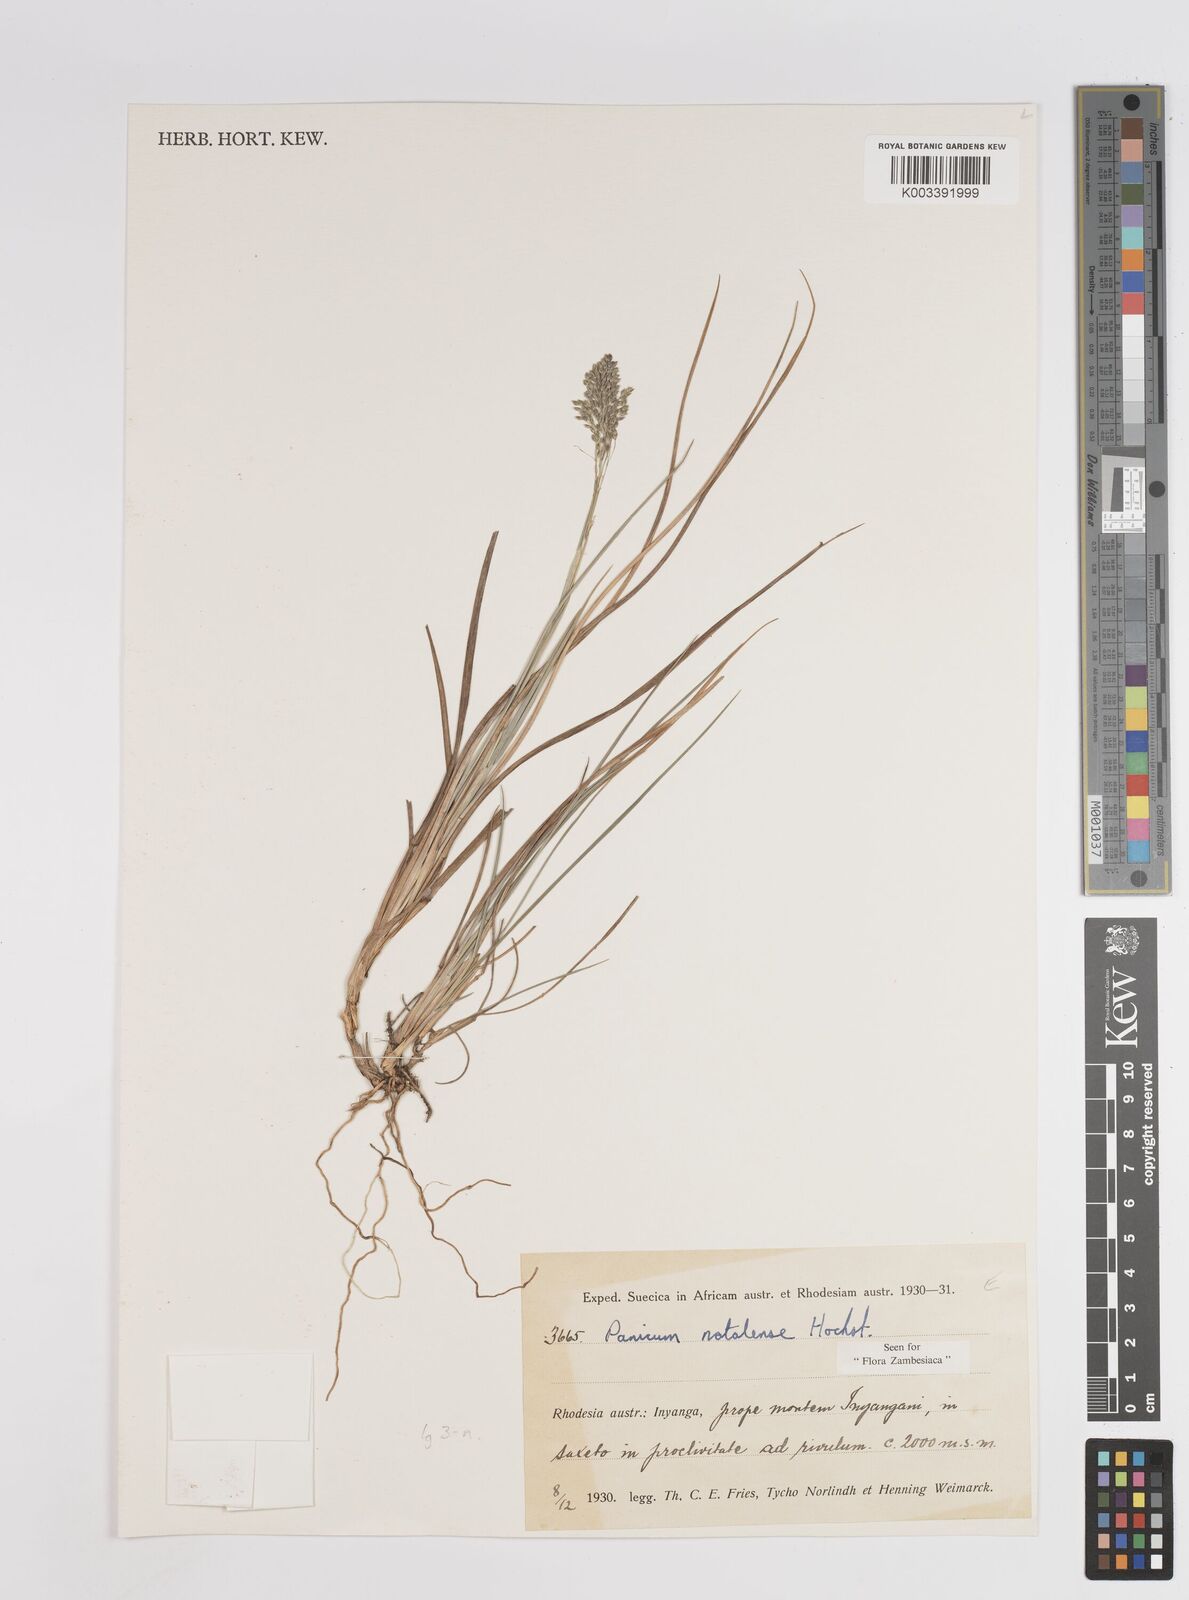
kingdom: Plantae
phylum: Tracheophyta
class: Liliopsida
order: Poales
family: Poaceae
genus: Trichanthecium
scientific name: Trichanthecium natalense
